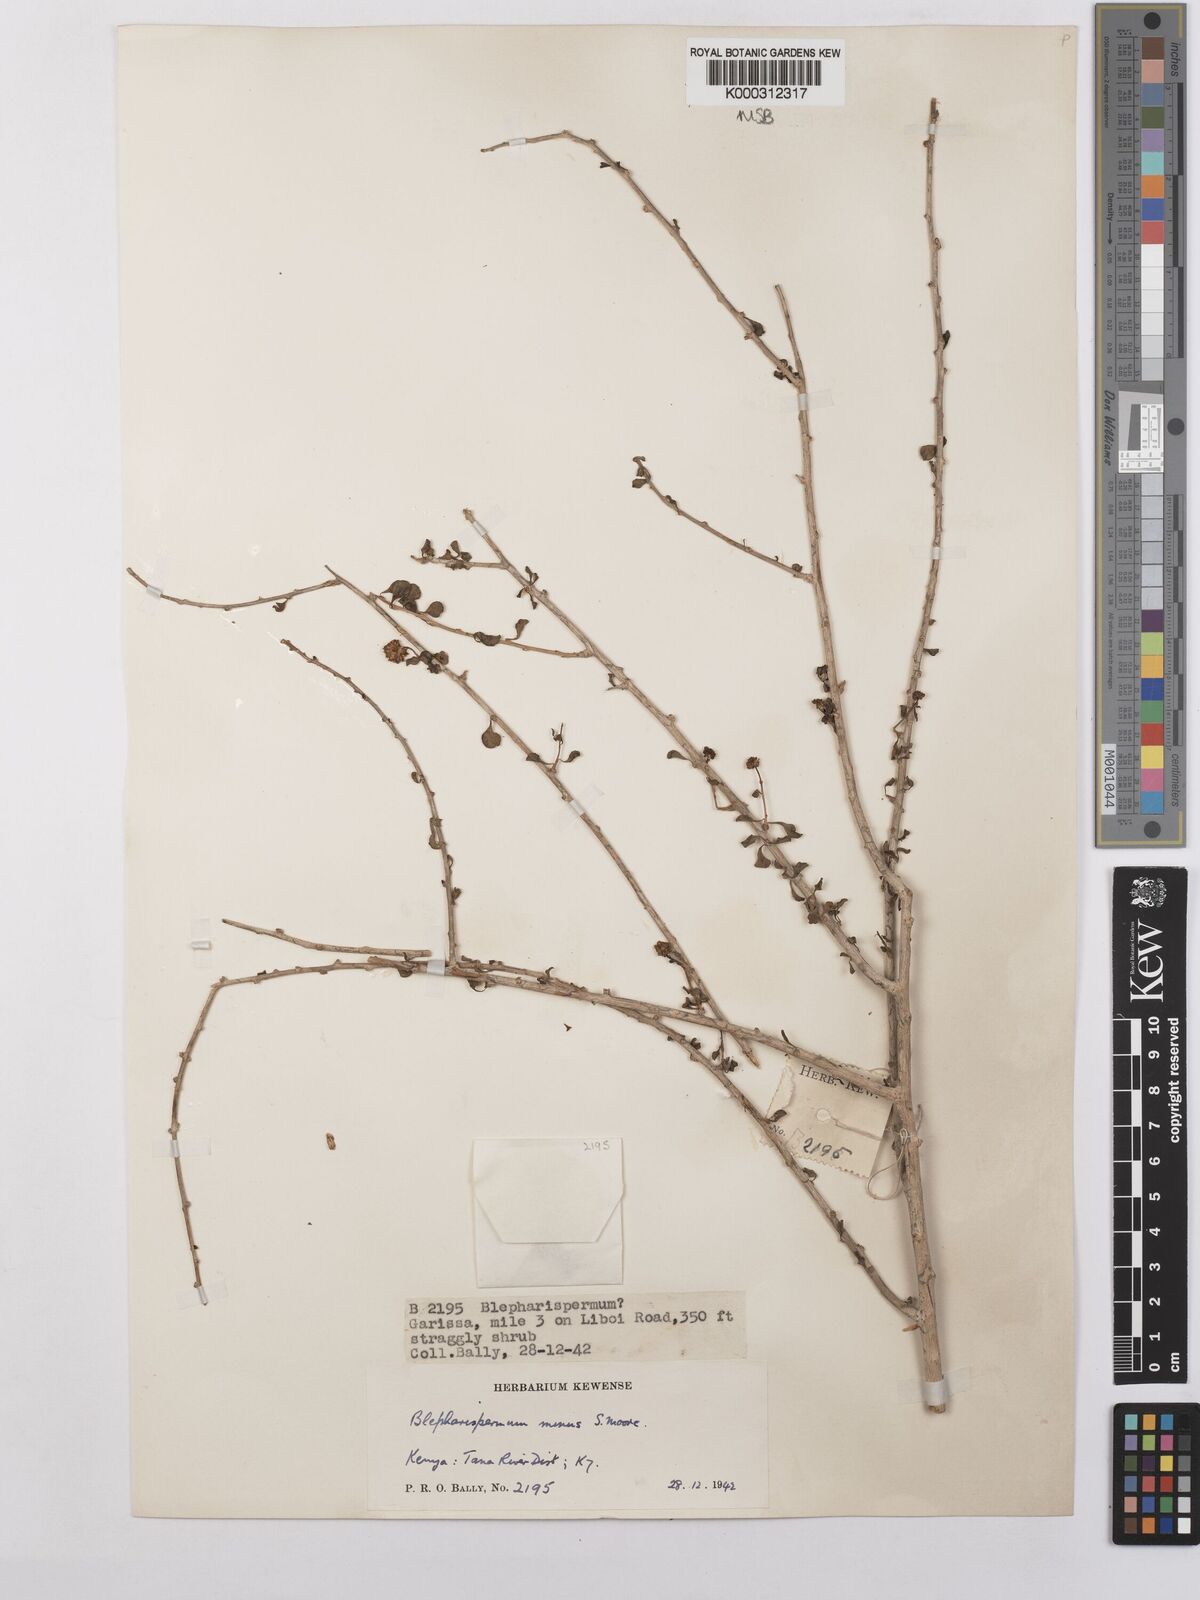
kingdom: Plantae
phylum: Tracheophyta
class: Magnoliopsida
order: Asterales
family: Asteraceae
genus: Blepharispermum
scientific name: Blepharispermum minus
